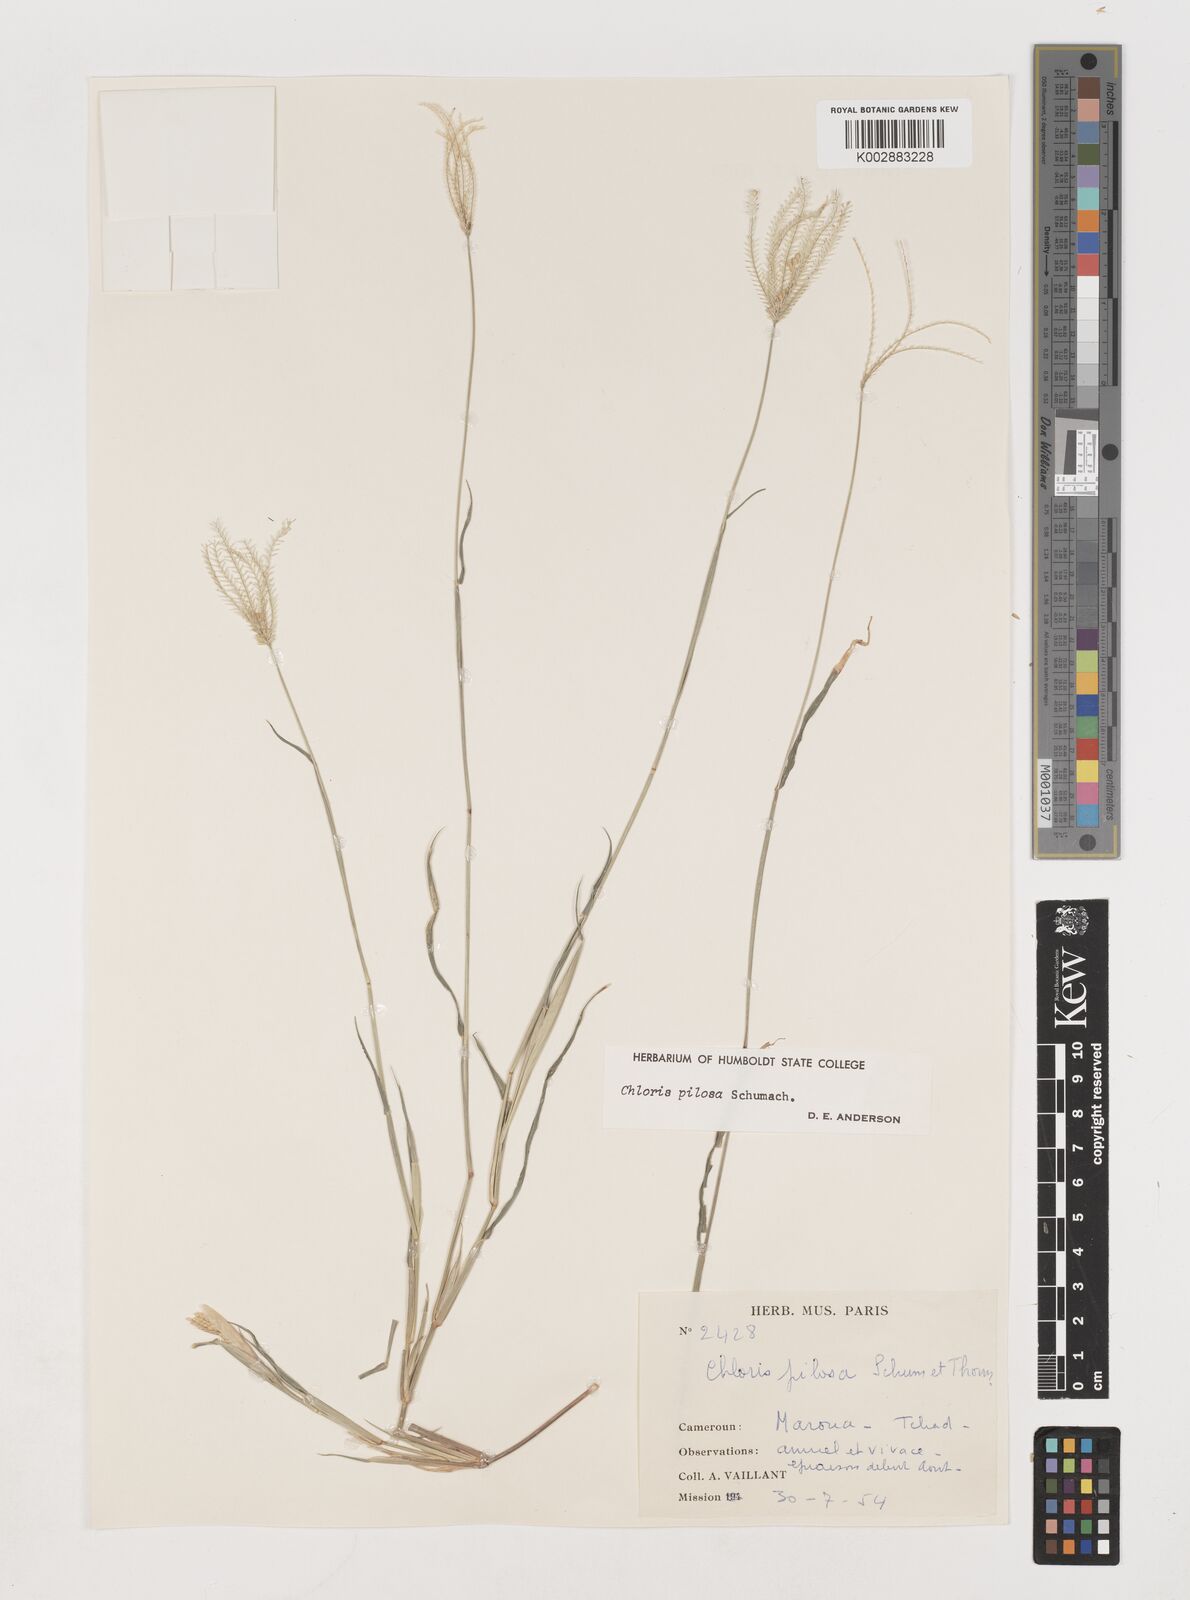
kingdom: Plantae
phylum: Tracheophyta
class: Liliopsida
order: Poales
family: Poaceae
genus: Chloris
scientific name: Chloris pilosa
